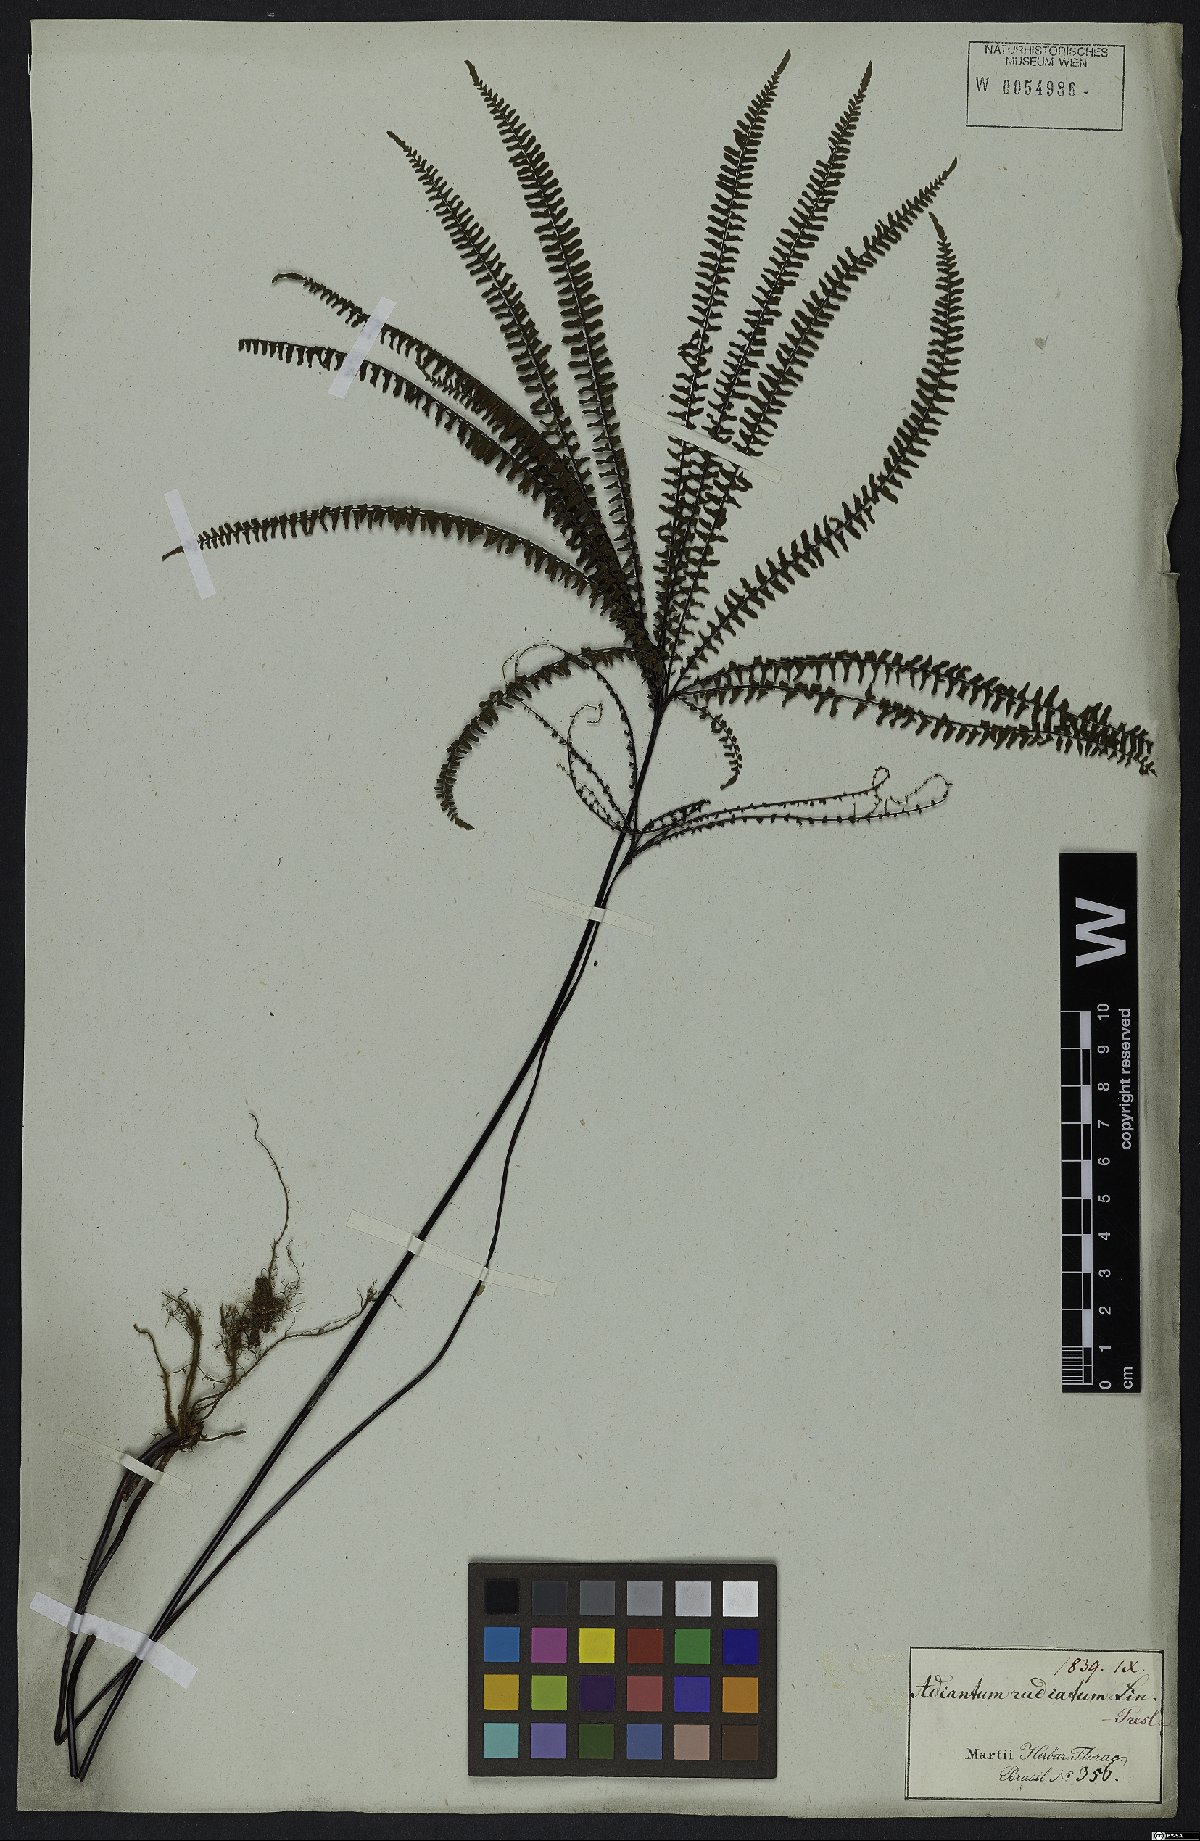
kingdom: Plantae
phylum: Tracheophyta
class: Polypodiopsida
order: Polypodiales
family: Pteridaceae
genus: Adiantopsis
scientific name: Adiantopsis radiata
